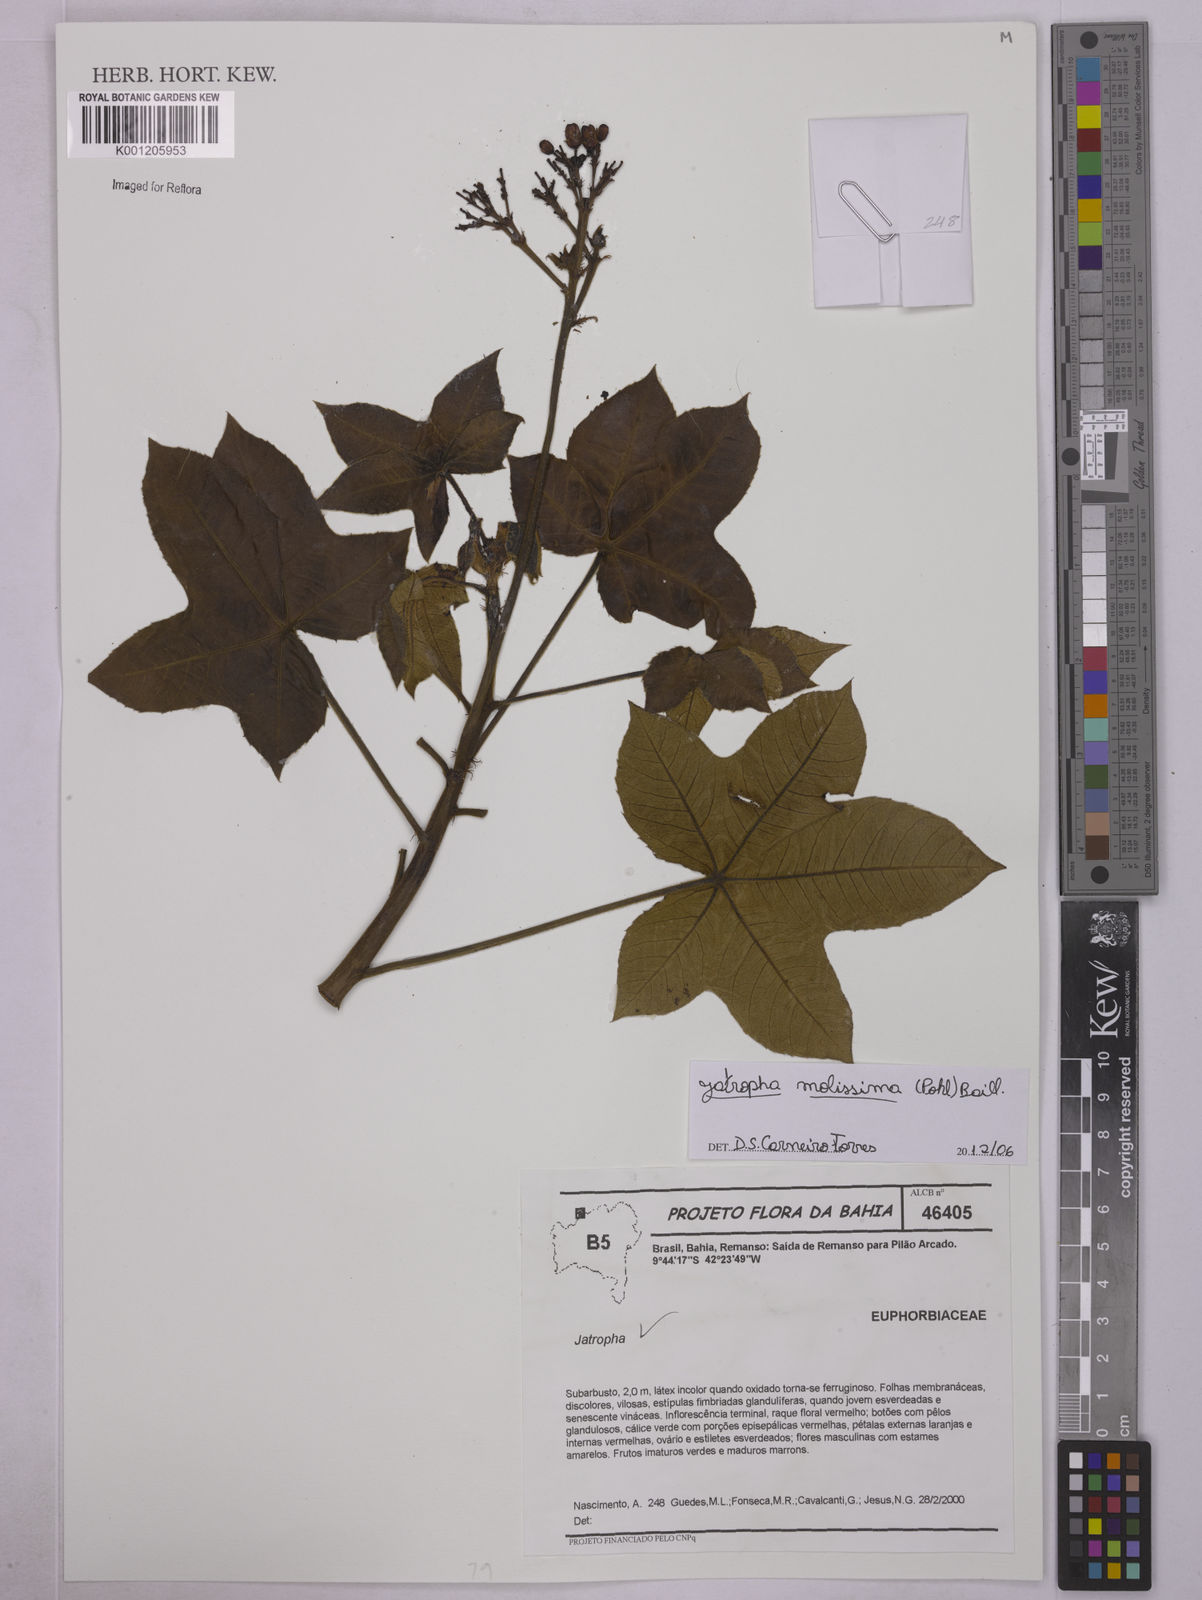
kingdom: Plantae
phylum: Tracheophyta
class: Magnoliopsida
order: Malpighiales
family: Euphorbiaceae
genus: Jatropha
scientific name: Jatropha mollissima
